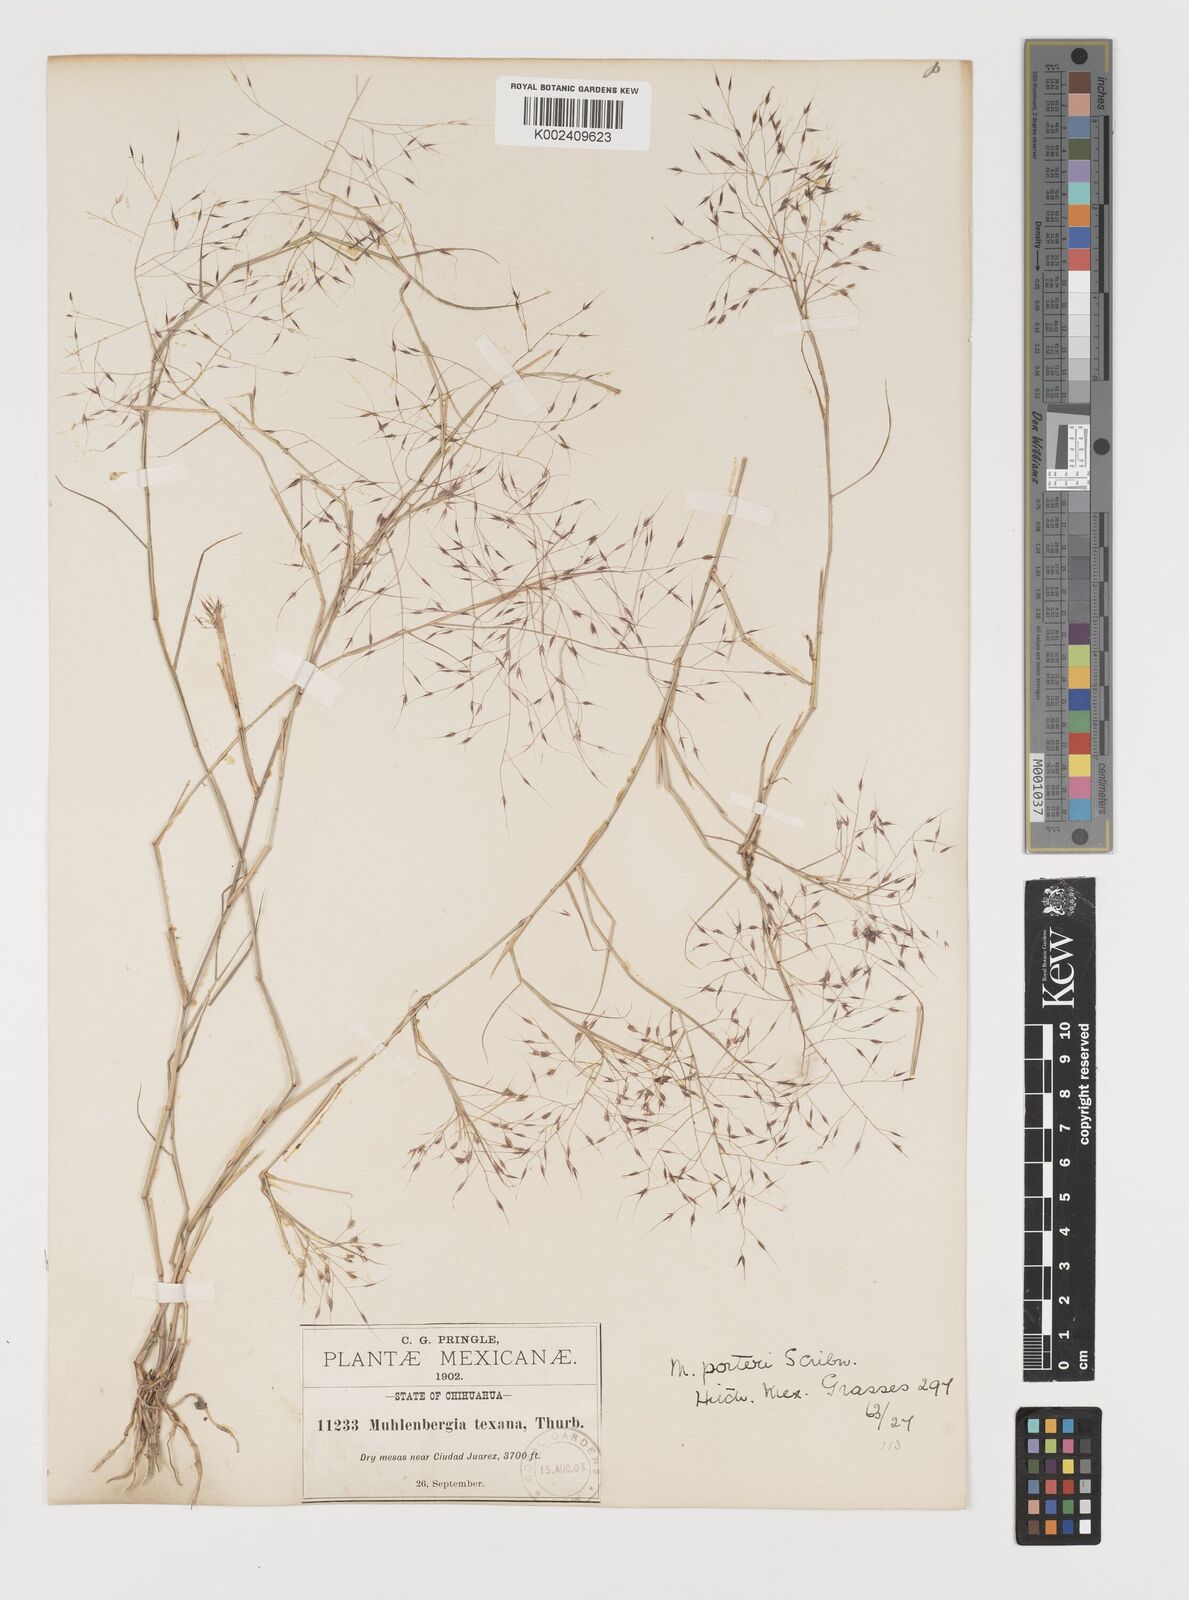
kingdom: Plantae
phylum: Tracheophyta
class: Liliopsida
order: Poales
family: Poaceae
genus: Muhlenbergia
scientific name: Muhlenbergia porteri
